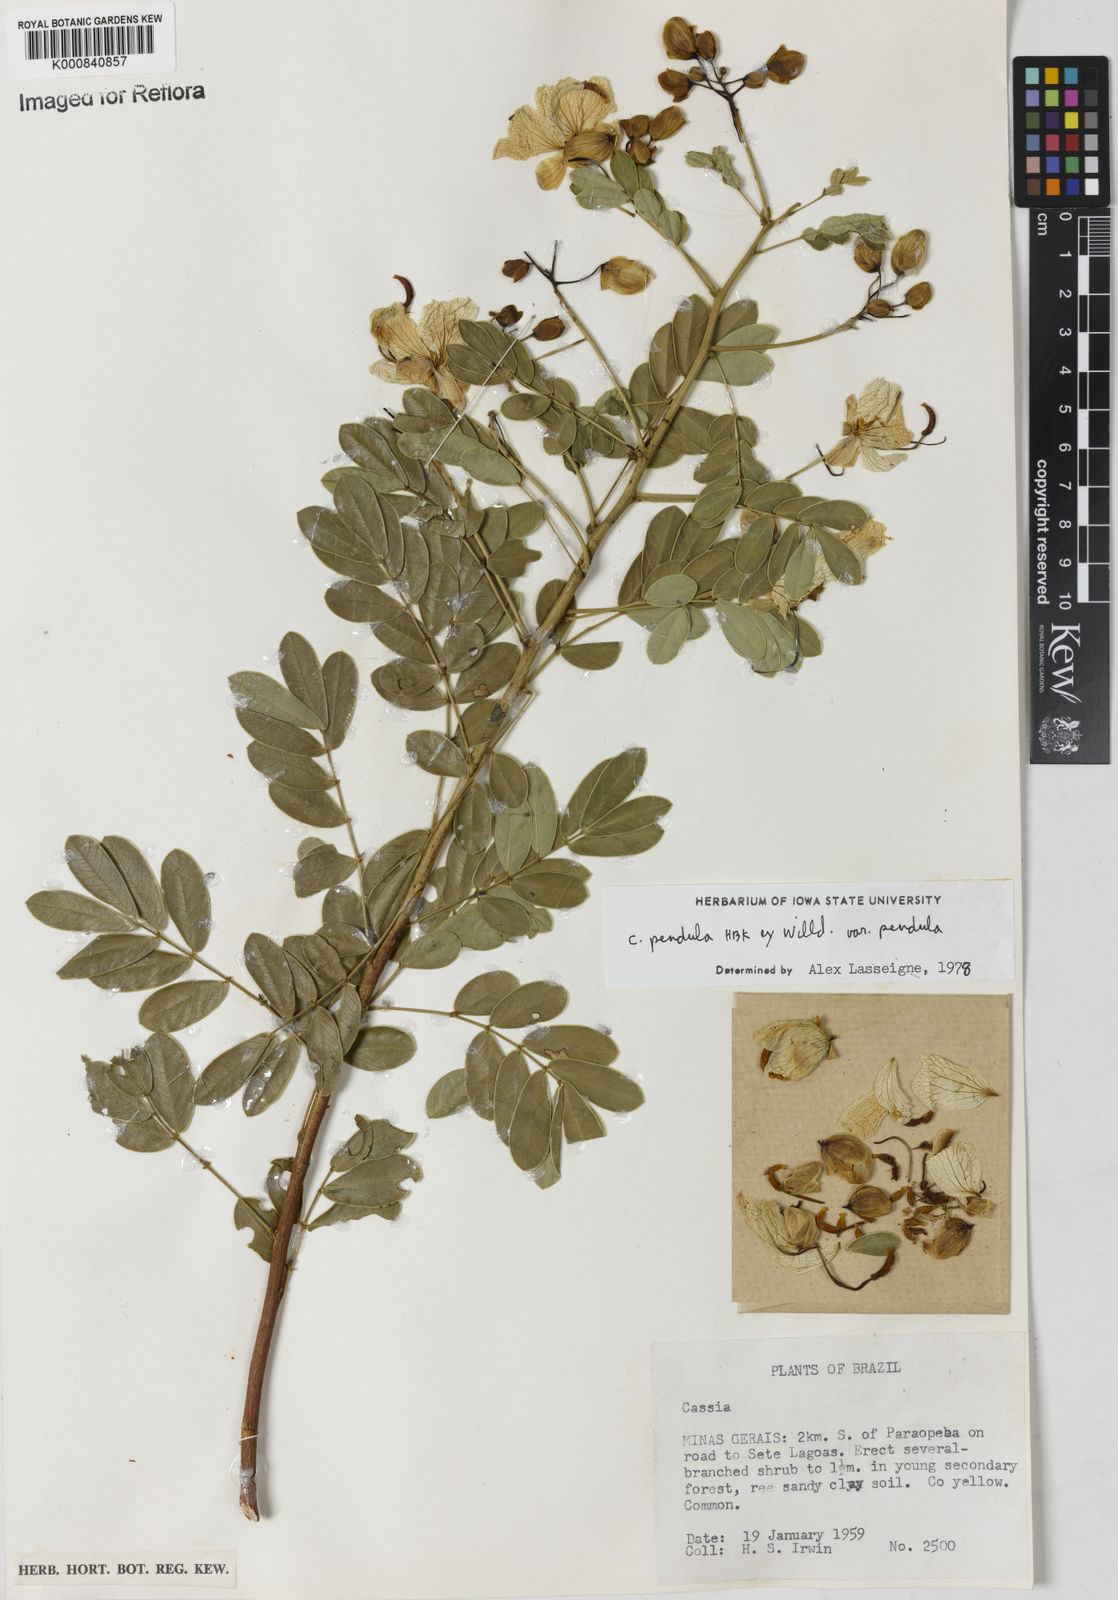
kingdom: Plantae
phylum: Tracheophyta
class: Magnoliopsida
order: Fabales
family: Fabaceae
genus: Senna
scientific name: Senna pendula
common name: Easter cassia
